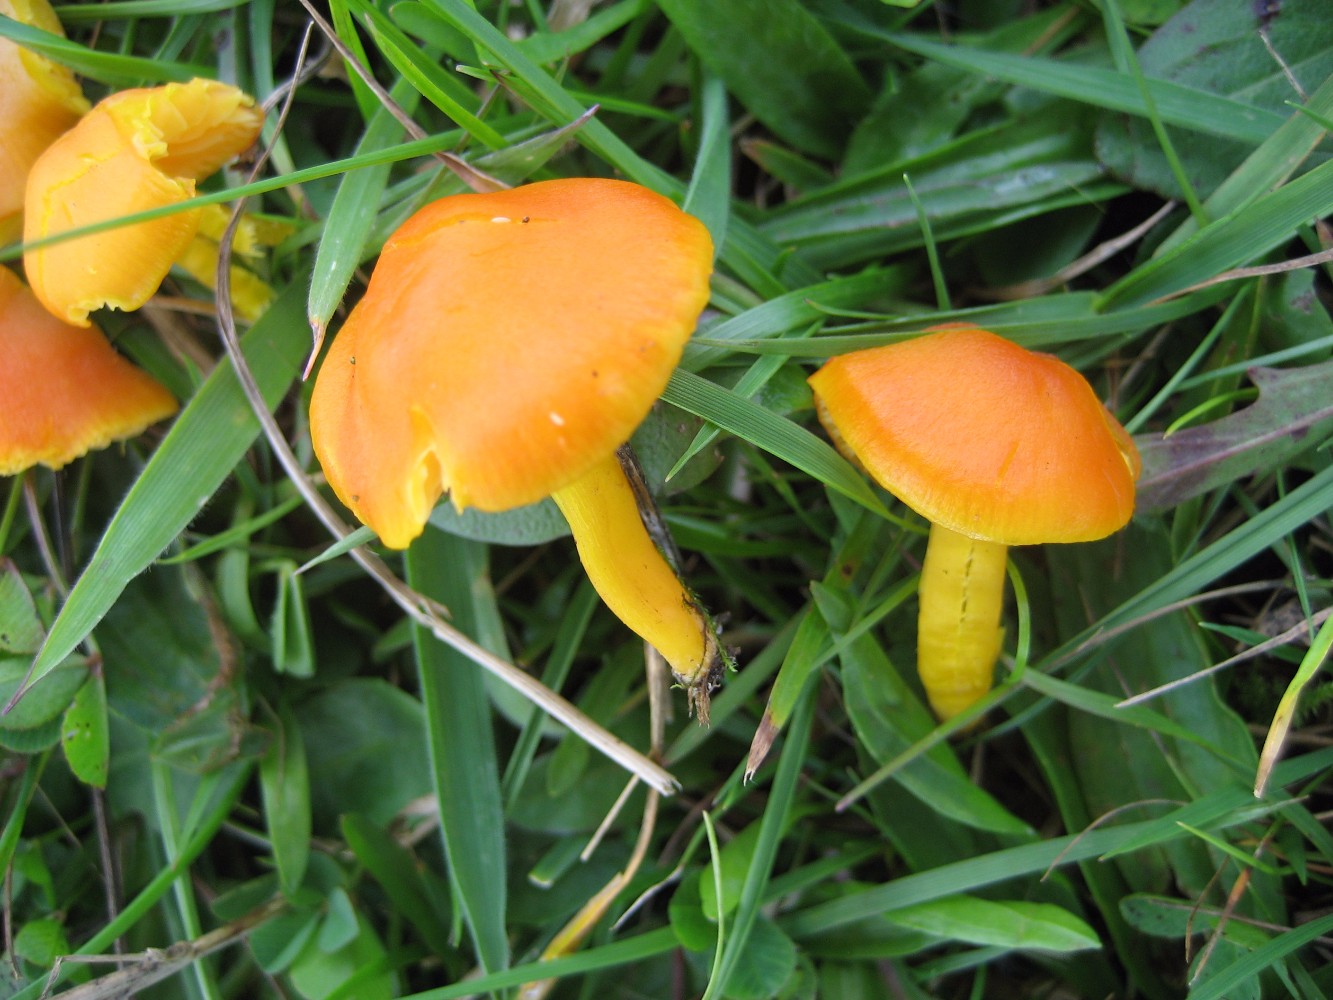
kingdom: Fungi
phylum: Basidiomycota
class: Agaricomycetes
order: Agaricales
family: Hygrophoraceae
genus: Hygrocybe
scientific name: Hygrocybe ceracea
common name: voksgul vokshat
